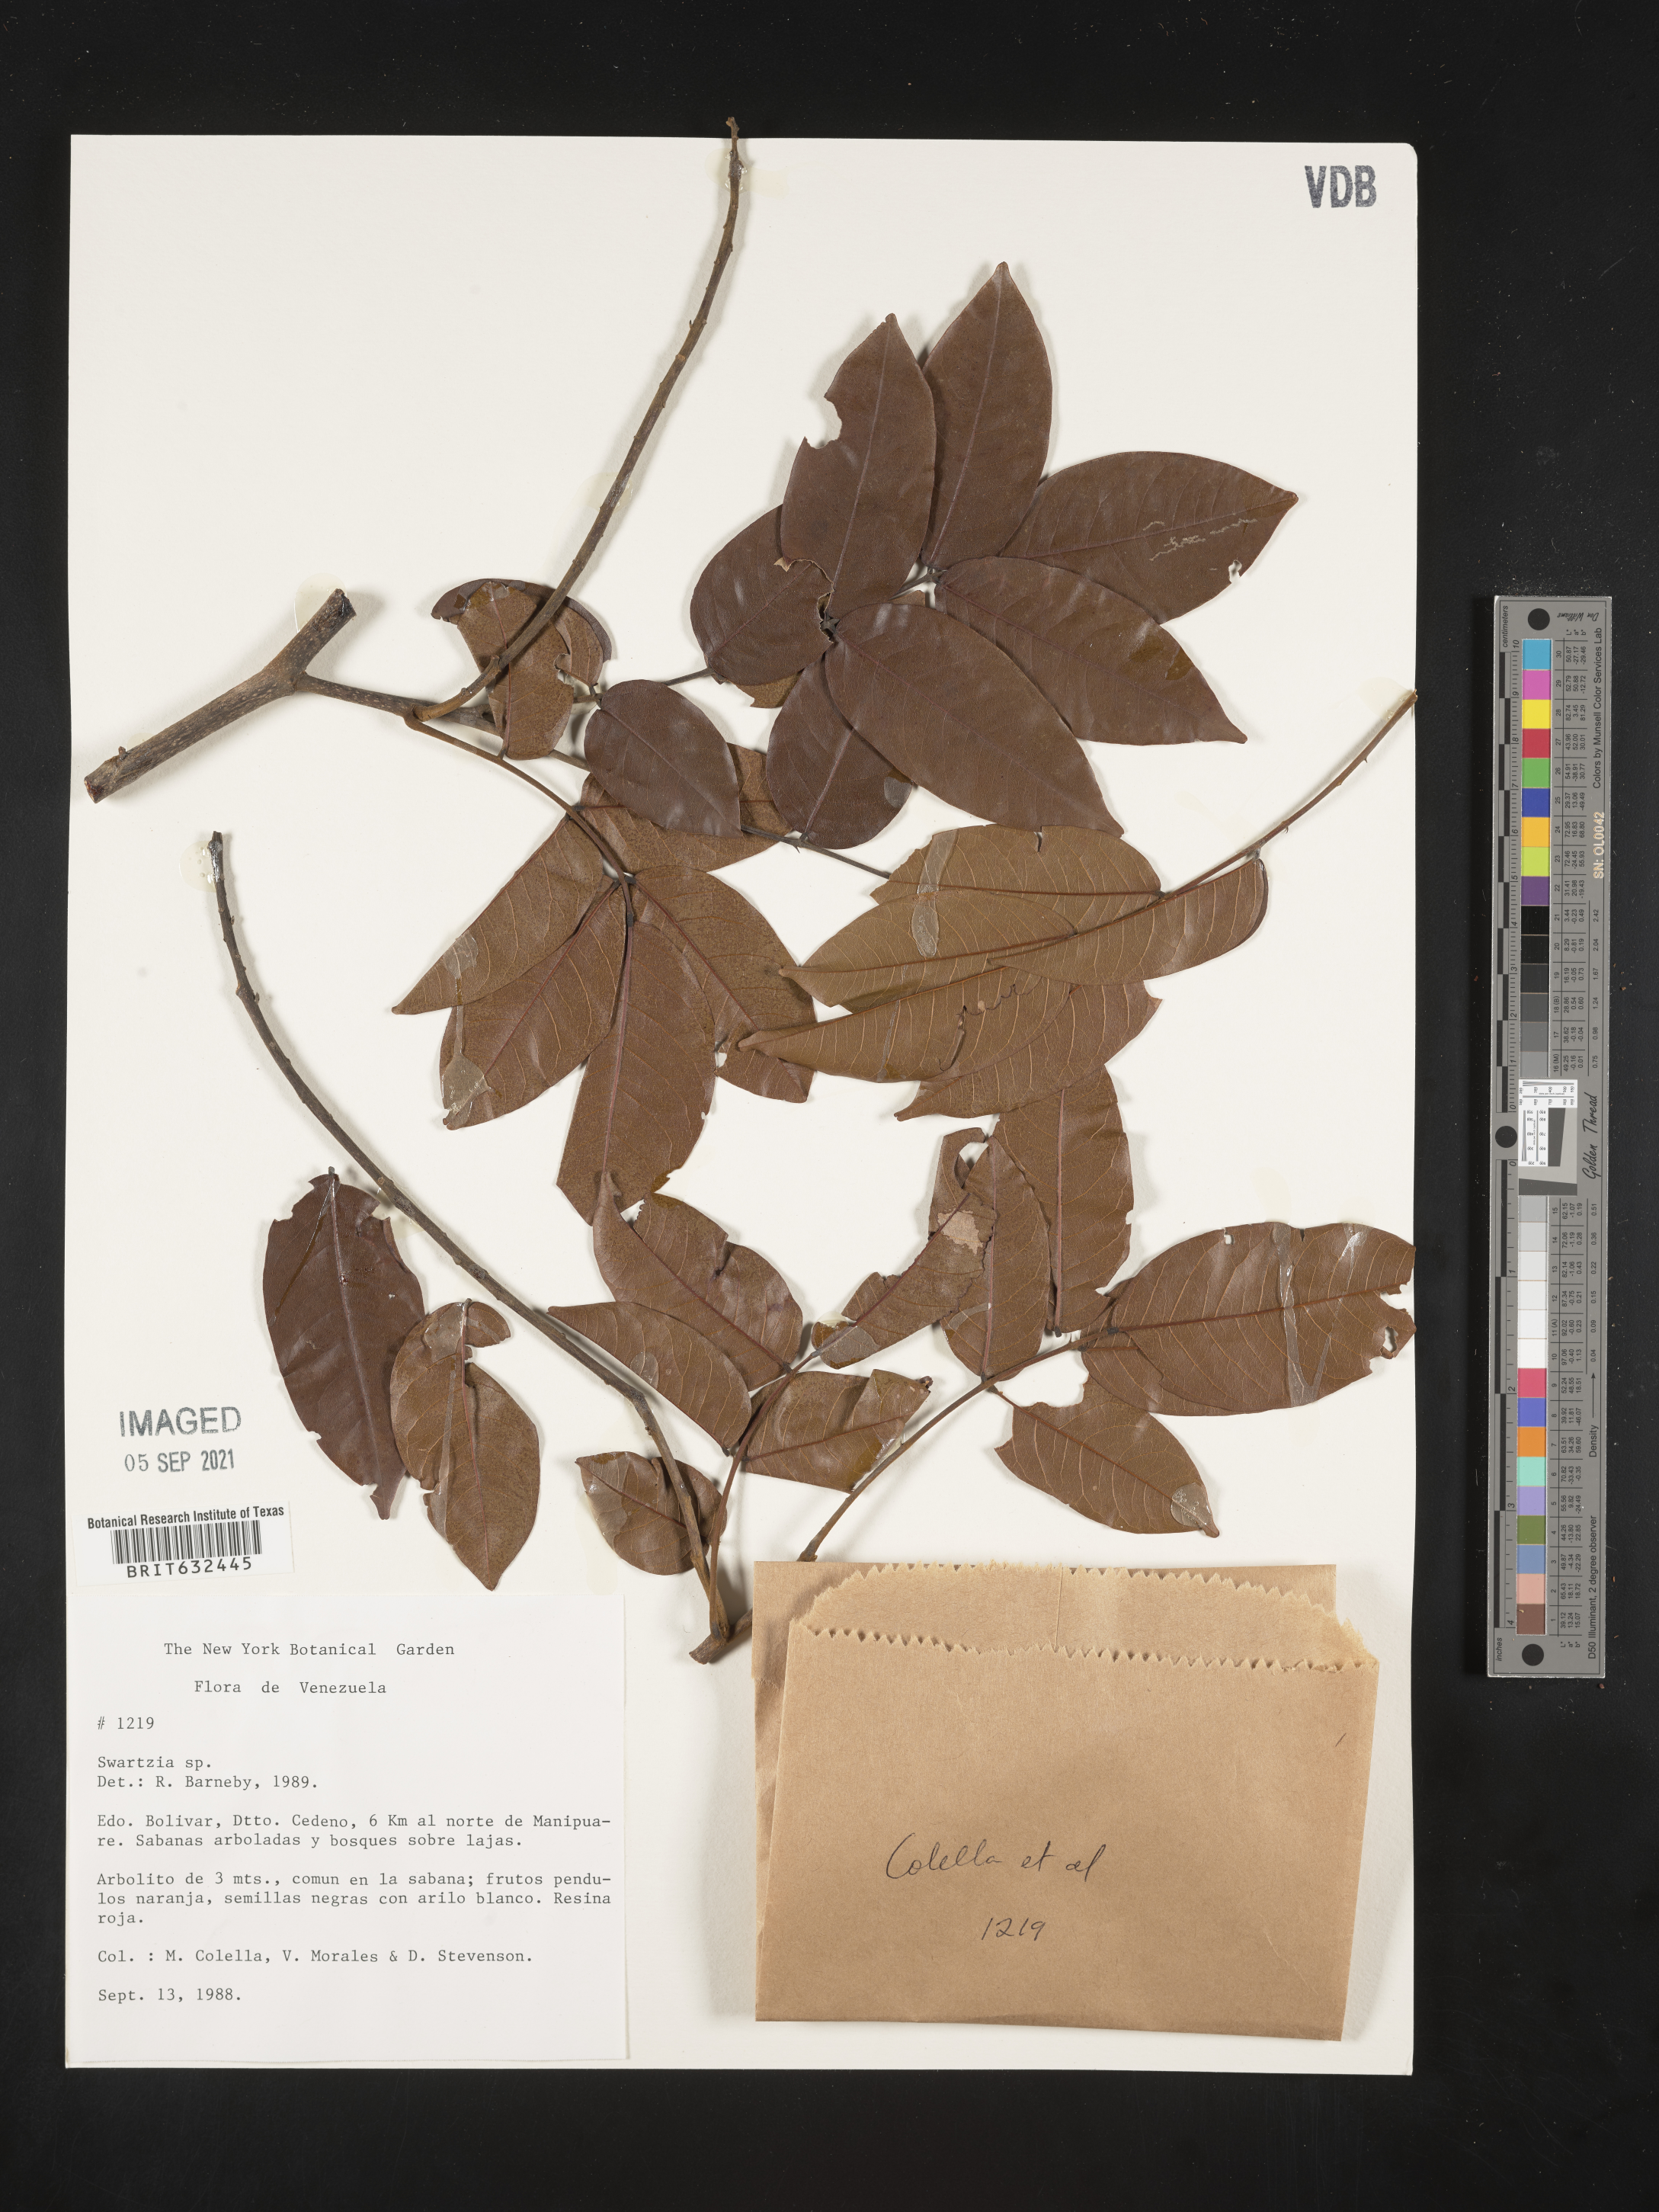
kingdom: Plantae
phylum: Tracheophyta
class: Magnoliopsida
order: Fabales
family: Fabaceae
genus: Swartzia
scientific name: Swartzia
